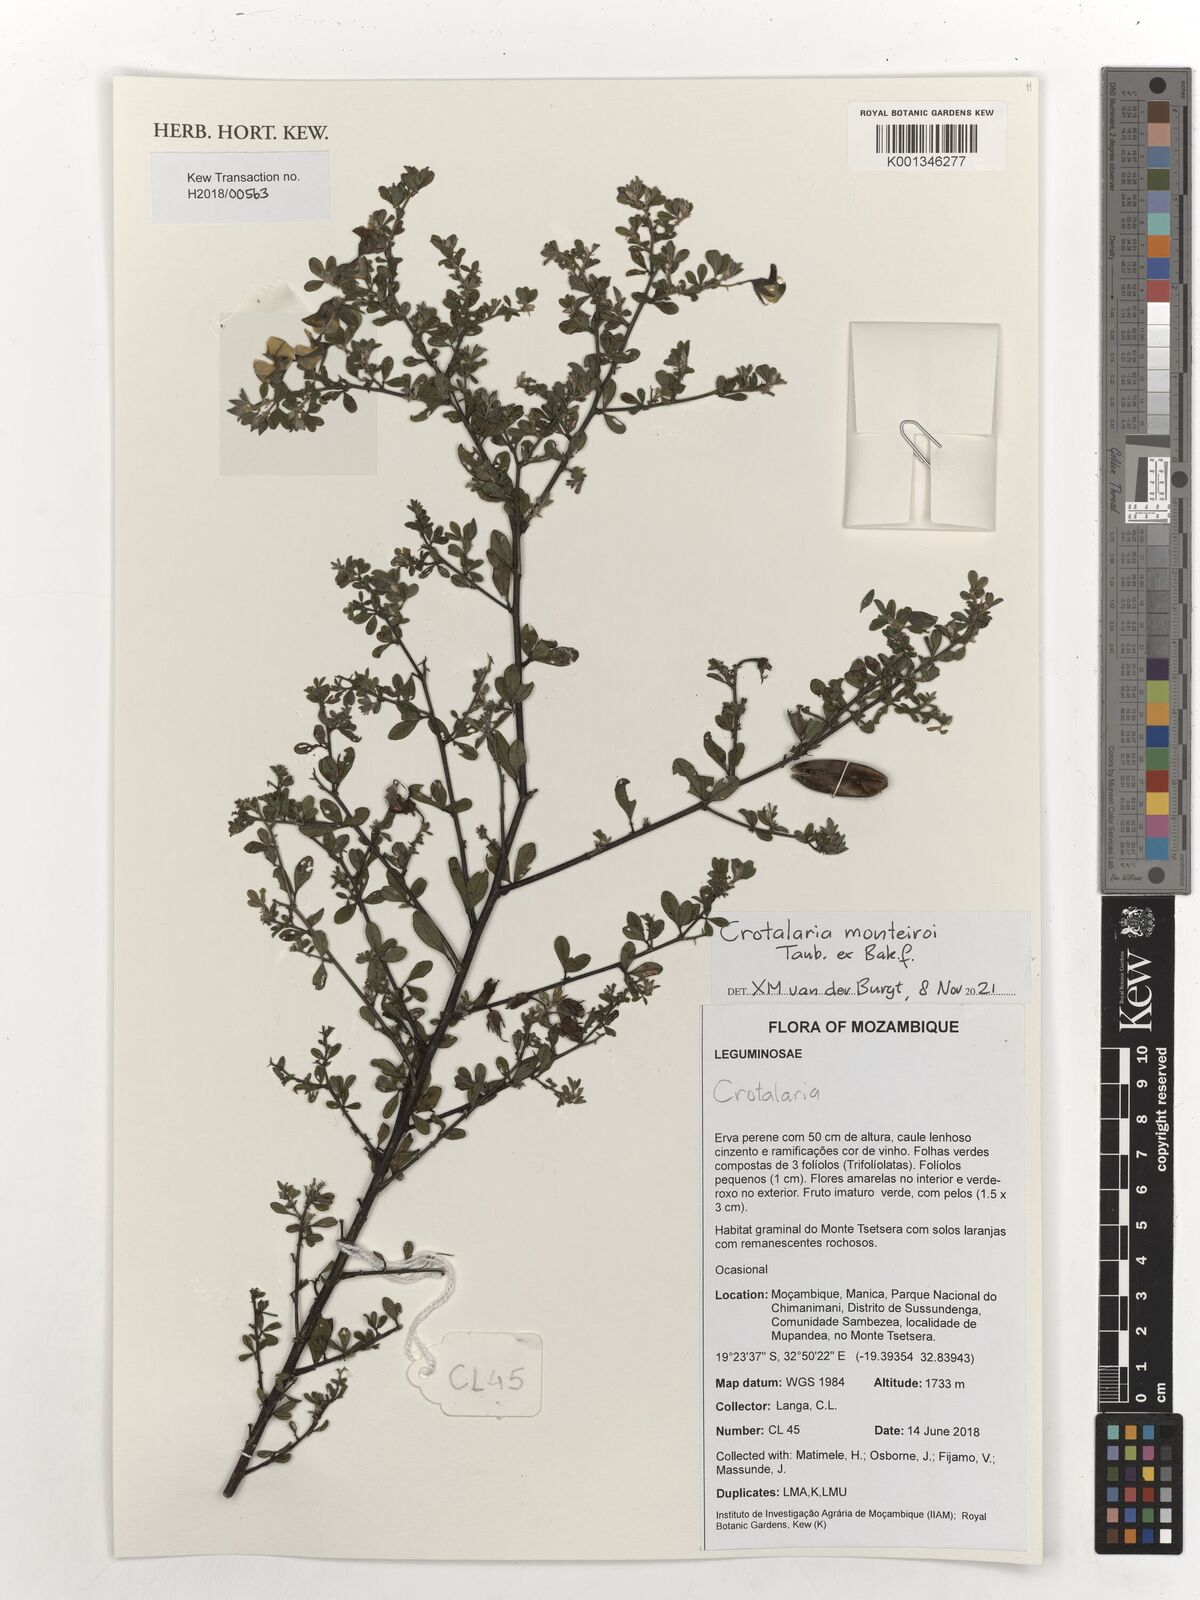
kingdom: Plantae
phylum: Tracheophyta
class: Magnoliopsida
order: Fabales
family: Fabaceae
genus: Crotalaria
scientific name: Crotalaria monteiroi
